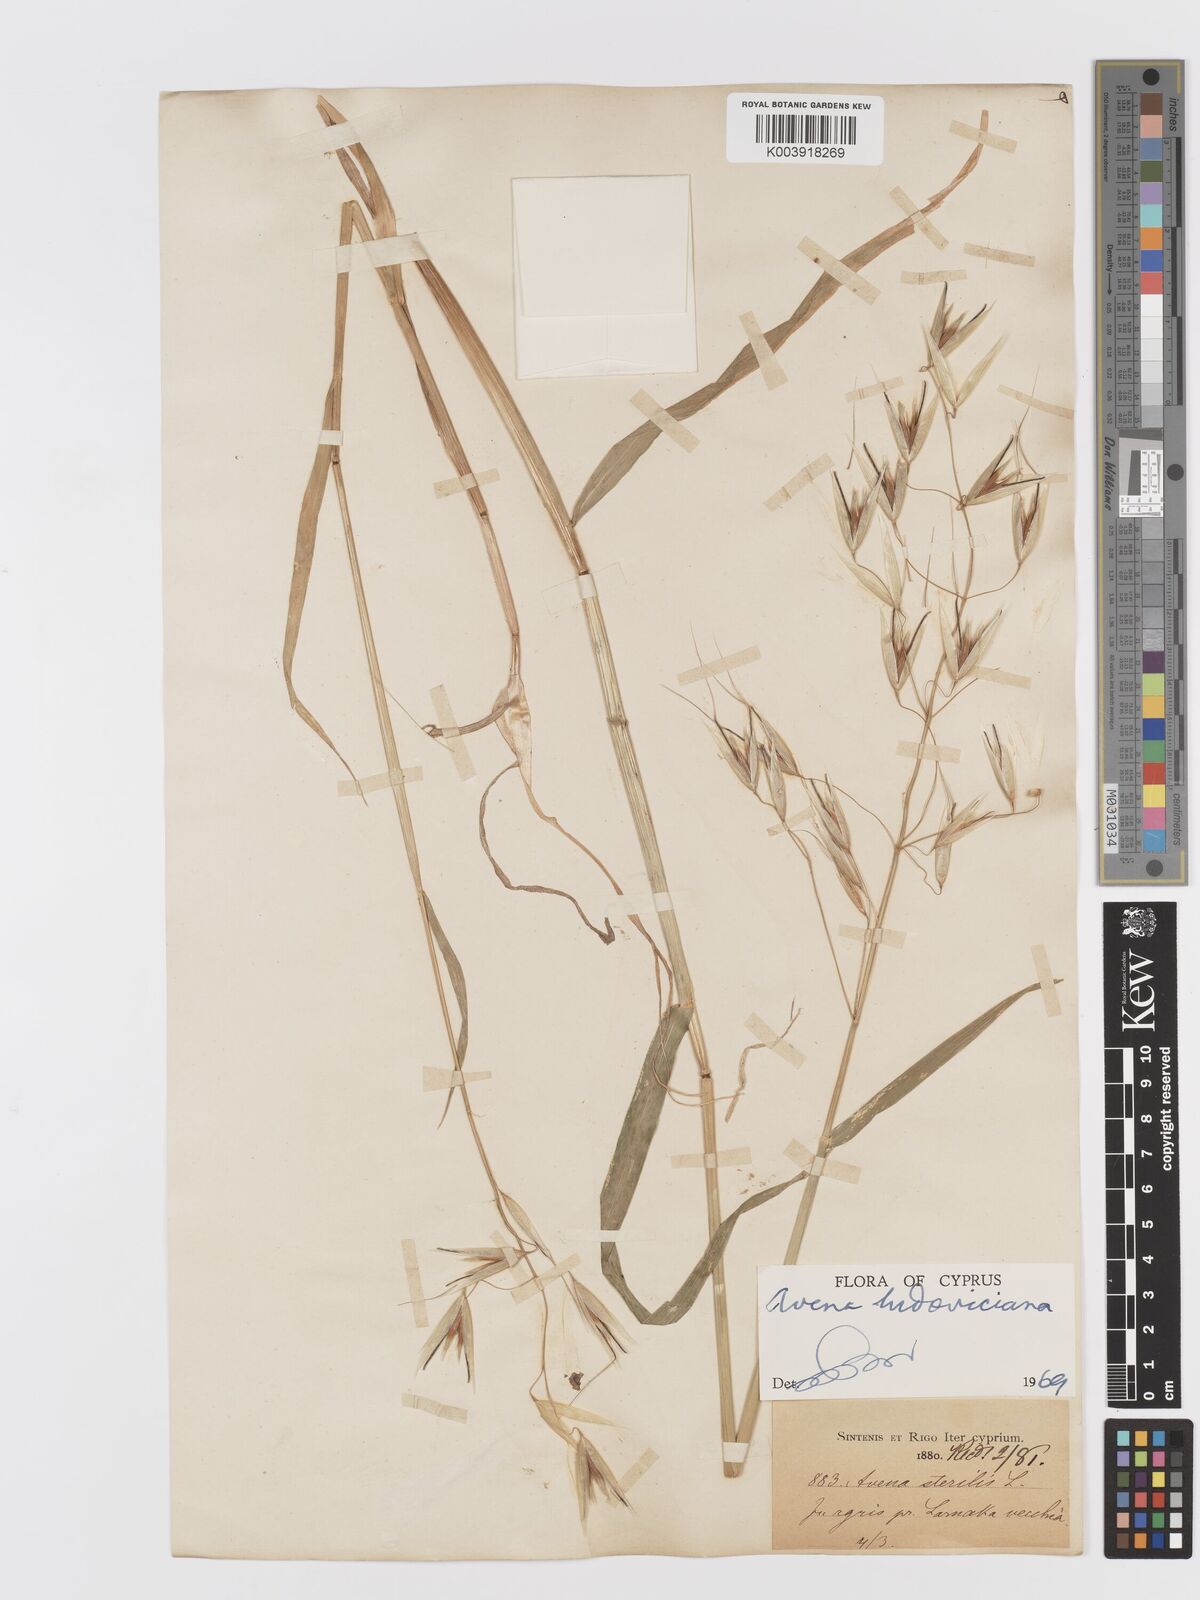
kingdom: Plantae
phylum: Tracheophyta
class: Liliopsida
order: Poales
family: Poaceae
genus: Avena
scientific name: Avena sterilis
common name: Animated oat
